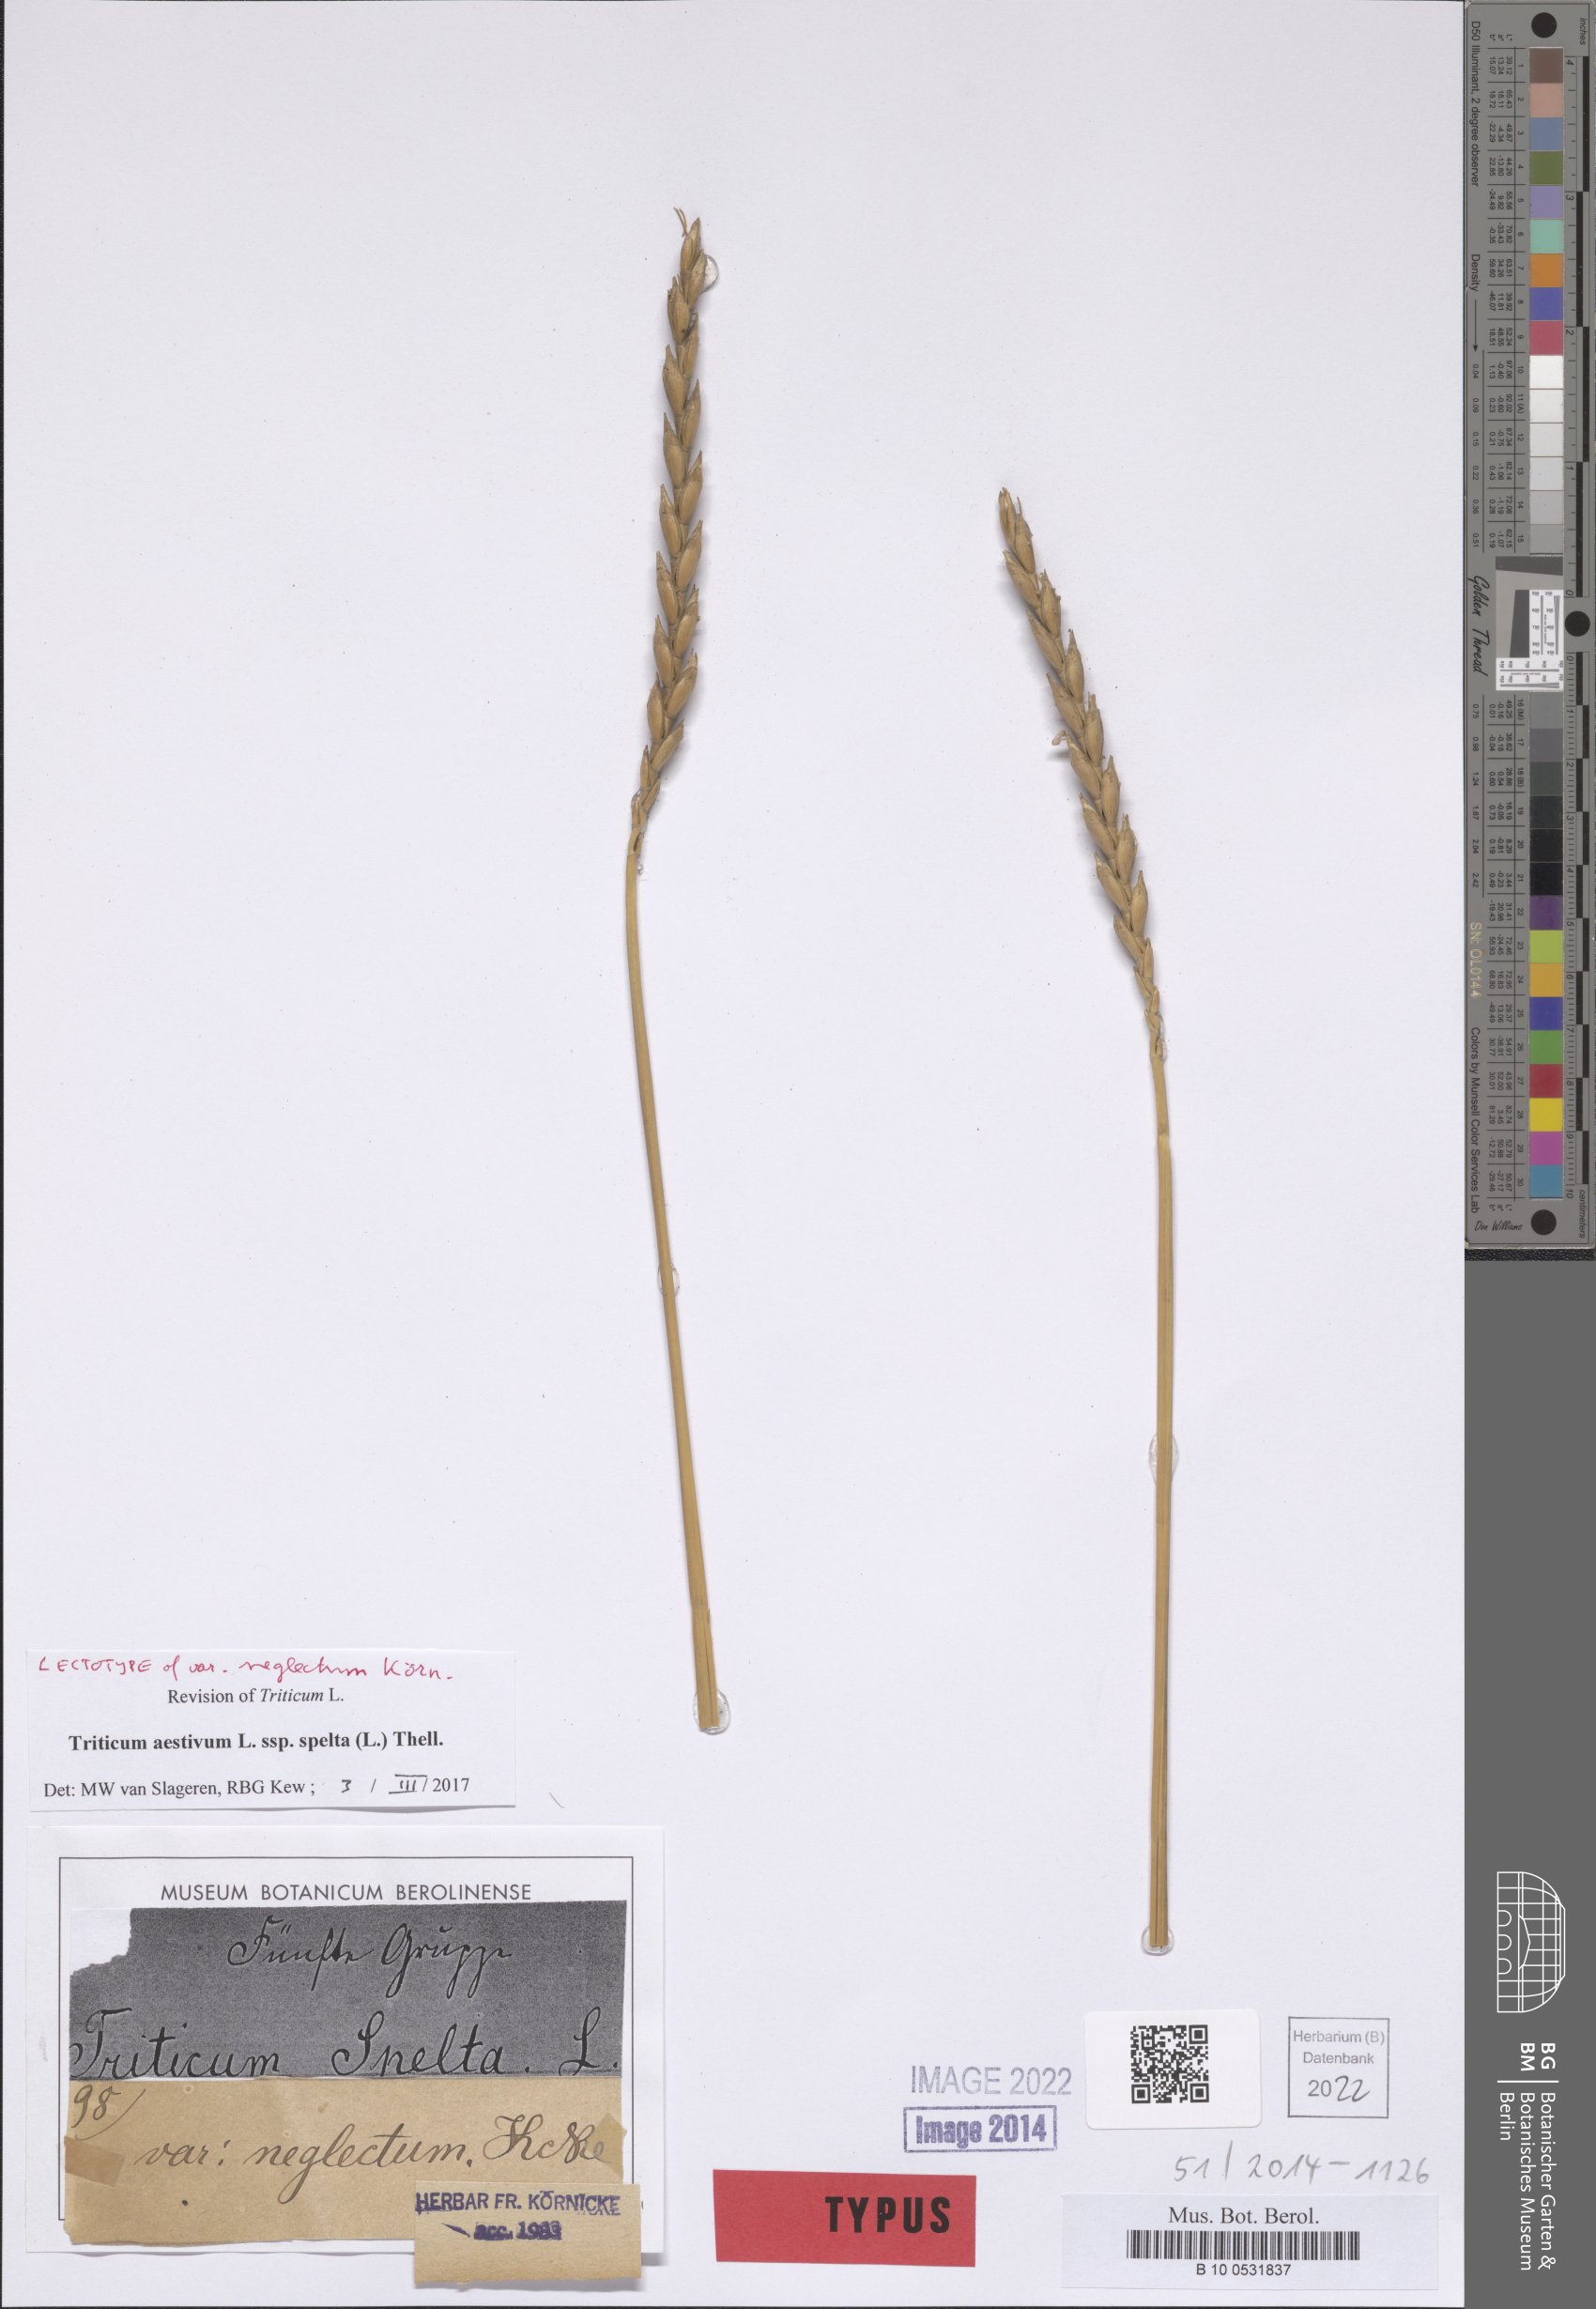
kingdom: Plantae
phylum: Tracheophyta
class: Liliopsida
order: Poales
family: Poaceae
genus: Triticum
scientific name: Triticum aestivum
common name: Common wheat
